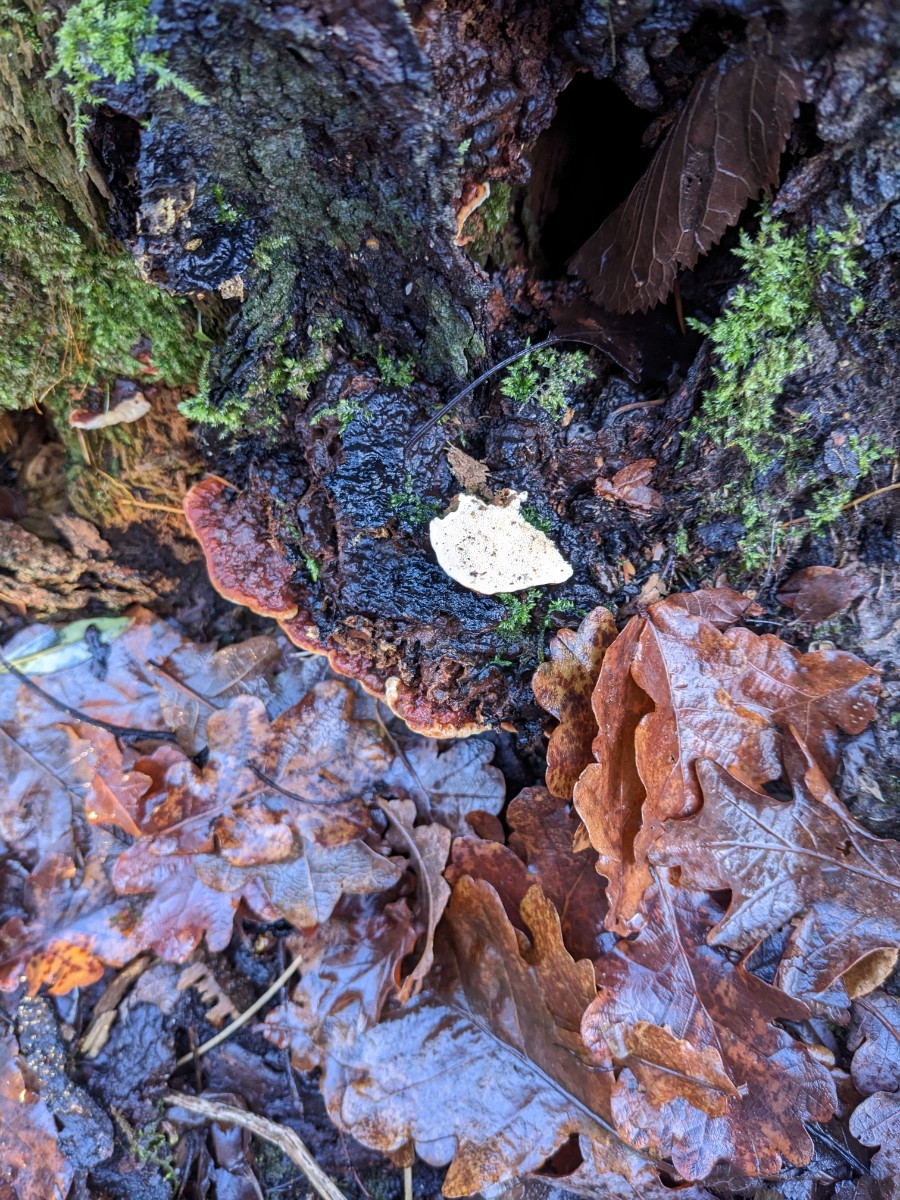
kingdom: Fungi
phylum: Basidiomycota
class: Agaricomycetes
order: Russulales
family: Bondarzewiaceae
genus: Heterobasidion
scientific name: Heterobasidion annosum
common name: almindelig rodfordærver
